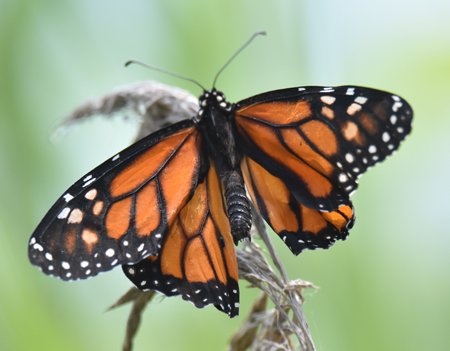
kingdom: Animalia
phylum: Arthropoda
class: Insecta
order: Lepidoptera
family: Nymphalidae
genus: Danaus
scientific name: Danaus plexippus
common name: Monarch
